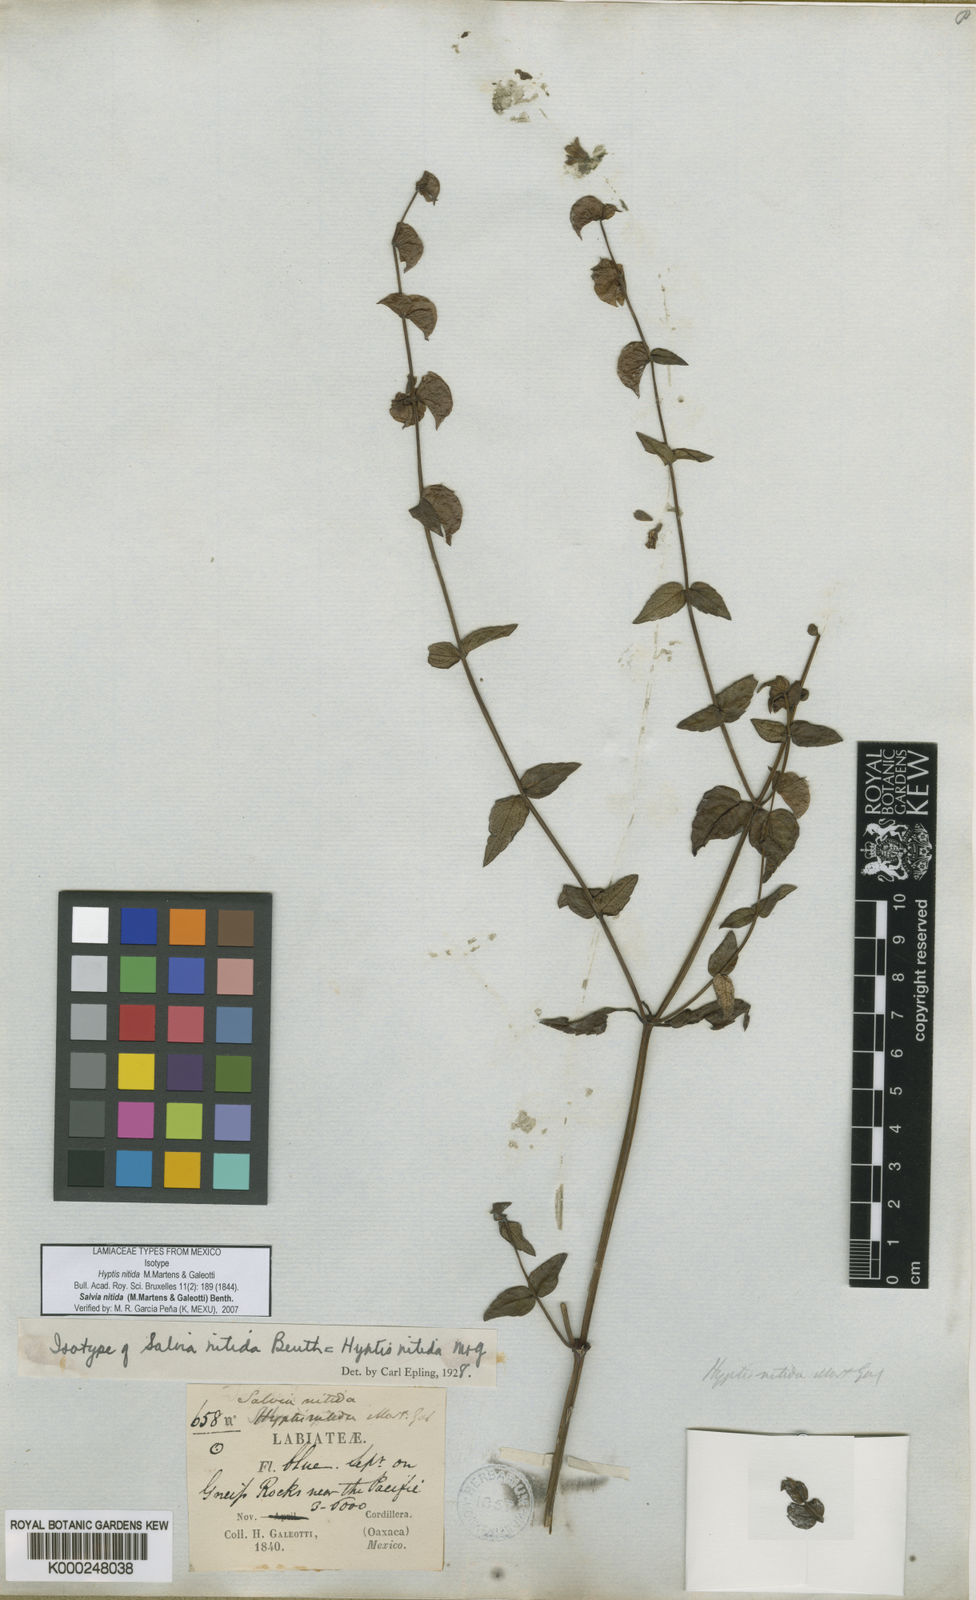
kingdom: Plantae
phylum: Tracheophyta
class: Magnoliopsida
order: Lamiales
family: Lamiaceae
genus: Salvia
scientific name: Salvia nitida
